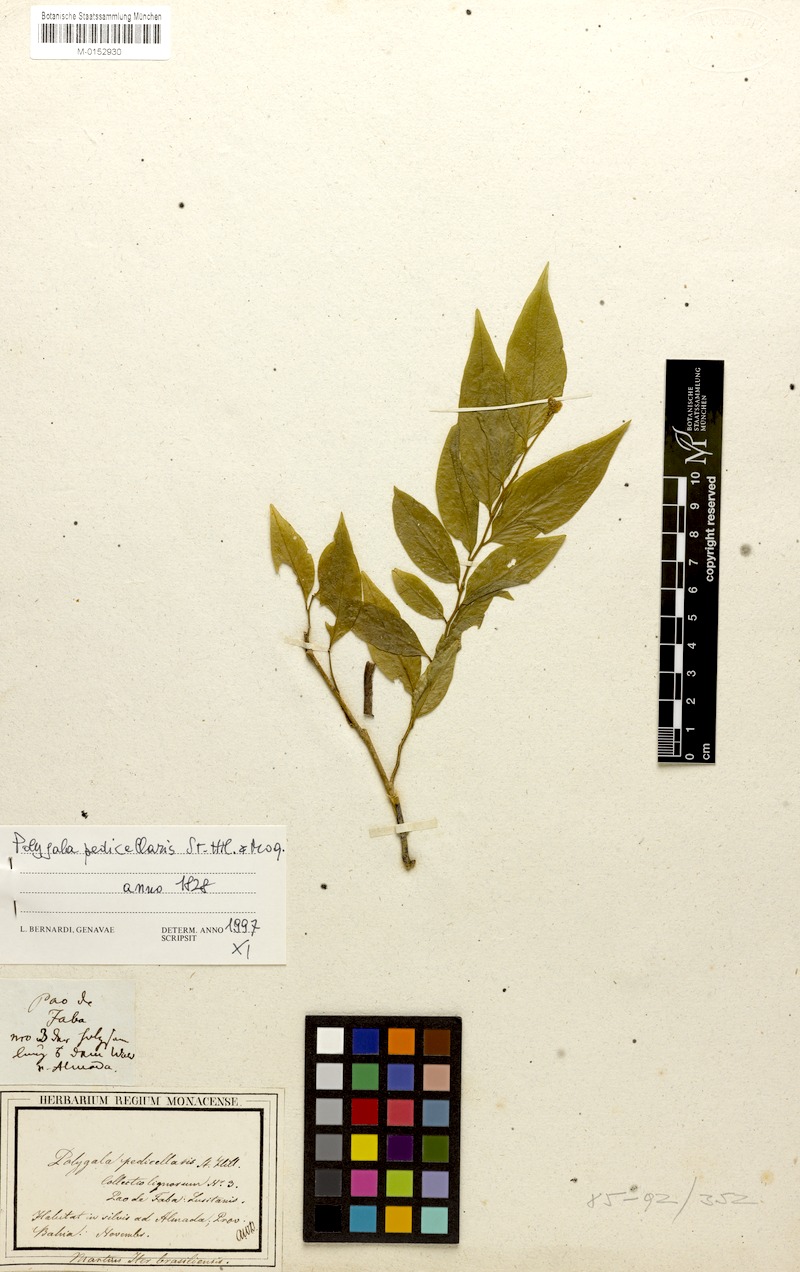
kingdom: Plantae
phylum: Tracheophyta
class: Magnoliopsida
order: Fabales
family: Polygalaceae
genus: Gymnospora
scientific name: Gymnospora blanchetii
